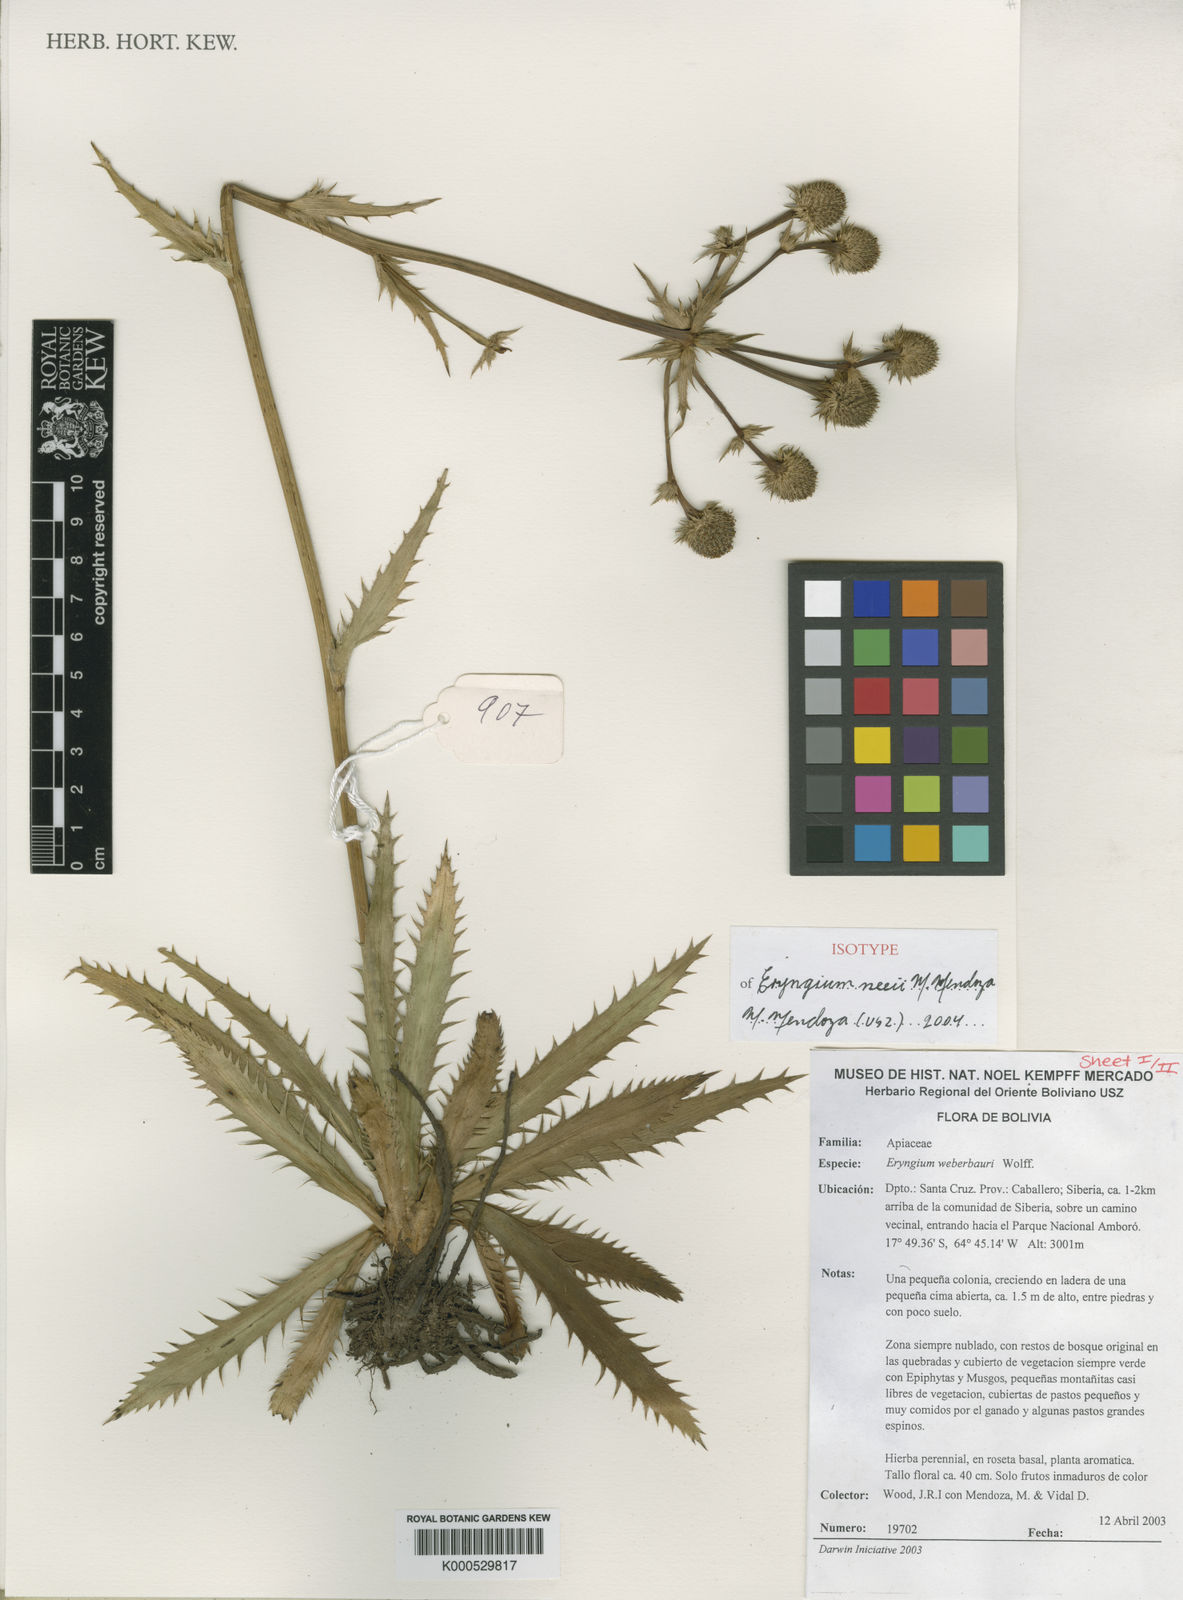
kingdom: Plantae
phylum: Tracheophyta
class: Magnoliopsida
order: Apiales
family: Apiaceae
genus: Eryngium
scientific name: Eryngium neei
